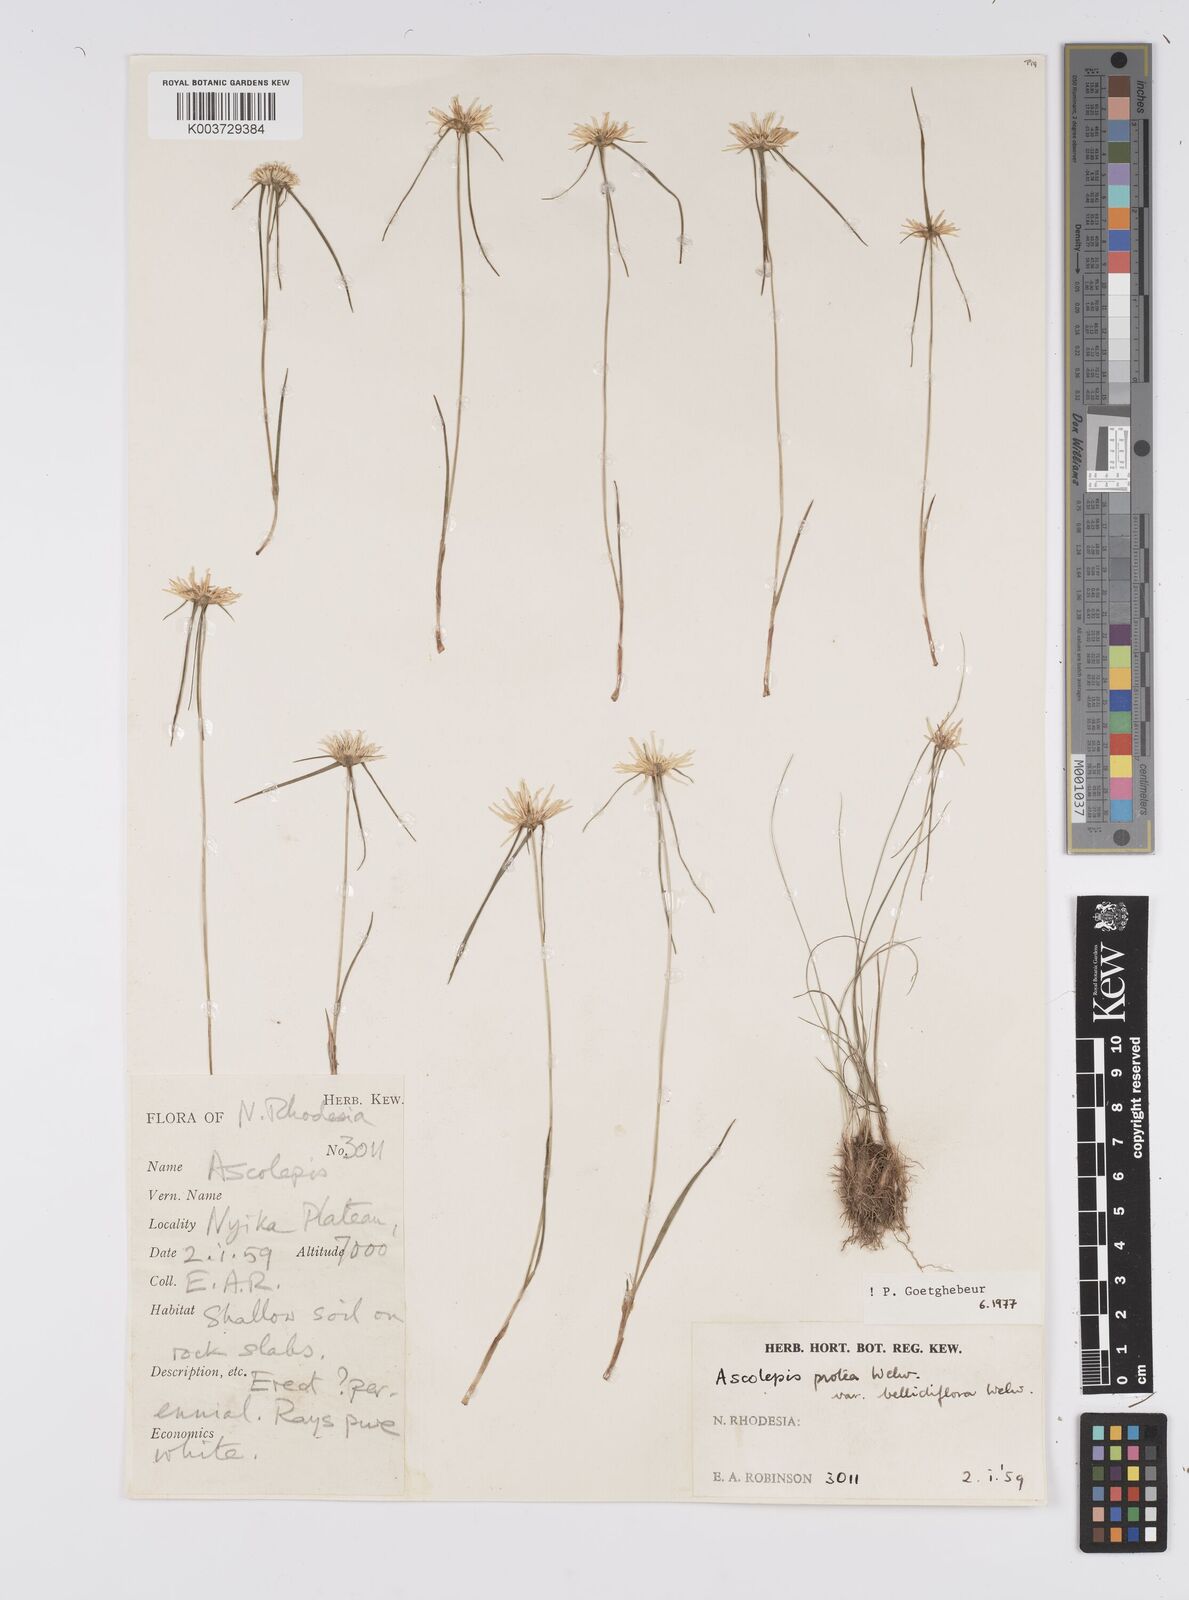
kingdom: Plantae
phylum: Tracheophyta
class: Liliopsida
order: Poales
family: Cyperaceae
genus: Cyperus
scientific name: Cyperus proteus
